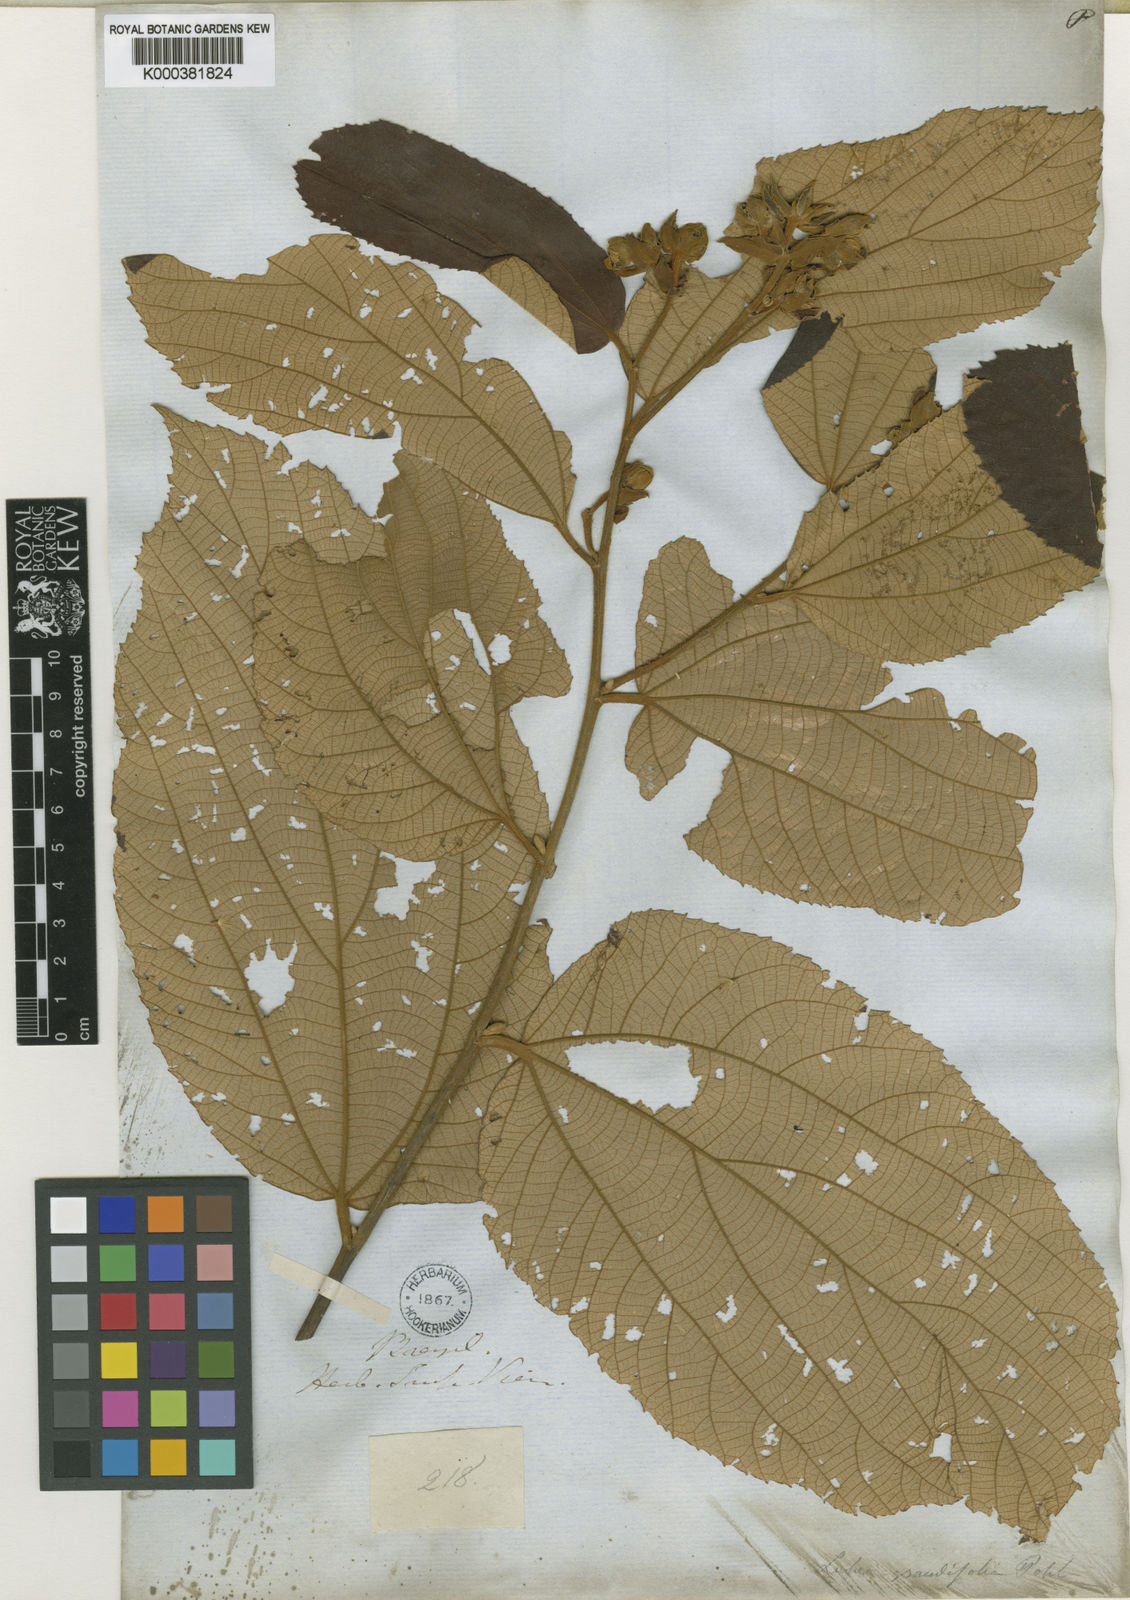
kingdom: Plantae
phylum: Tracheophyta
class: Magnoliopsida
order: Malvales
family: Malvaceae
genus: Luehea
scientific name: Luehea
